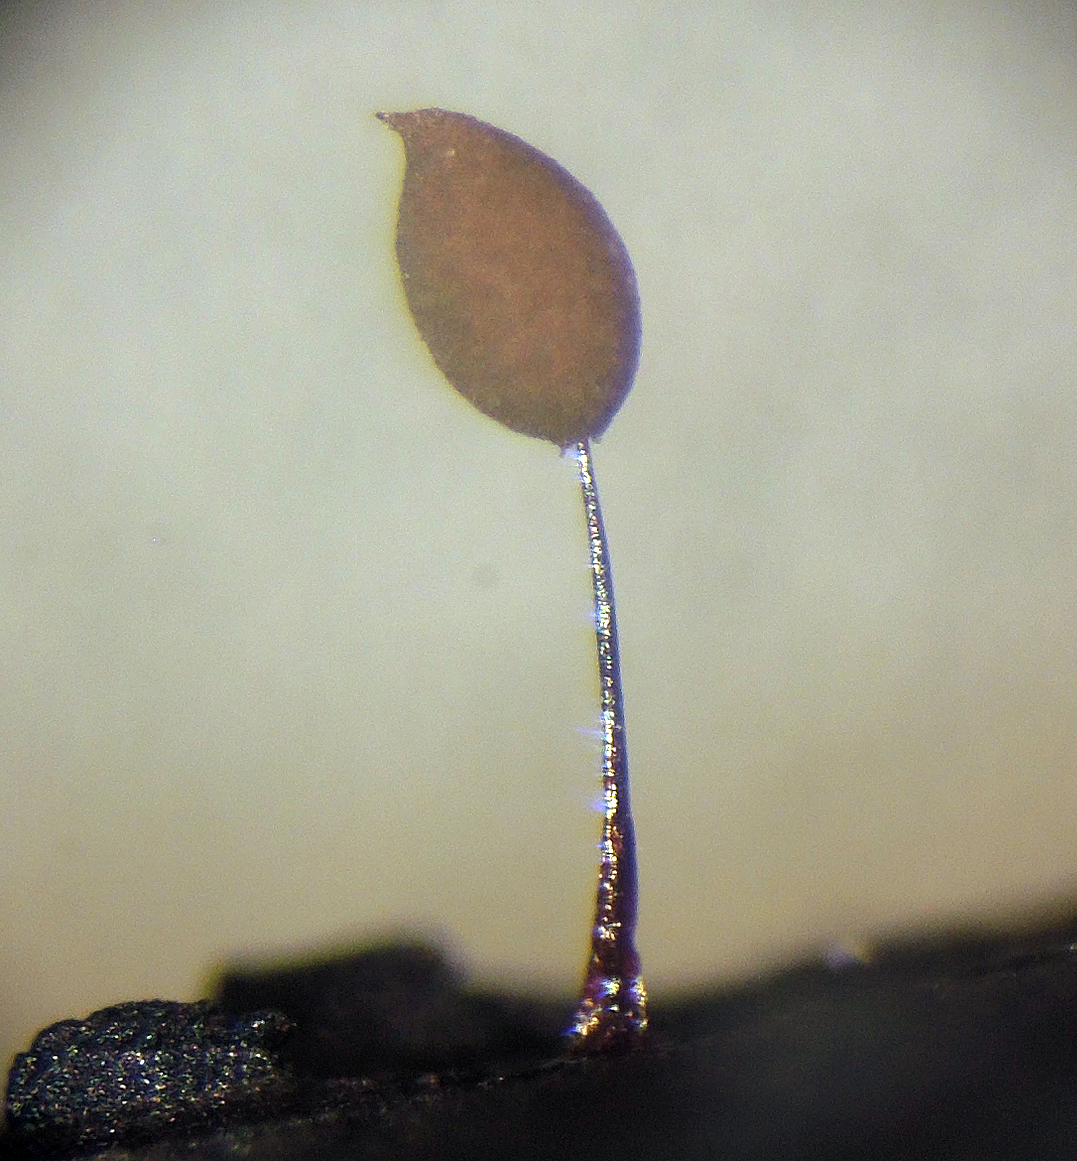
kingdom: Protozoa
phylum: Mycetozoa
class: Myxomycetes
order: Stemonitidales
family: Stemonitidaceae
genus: Comatricha
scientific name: Comatricha tenerrima
